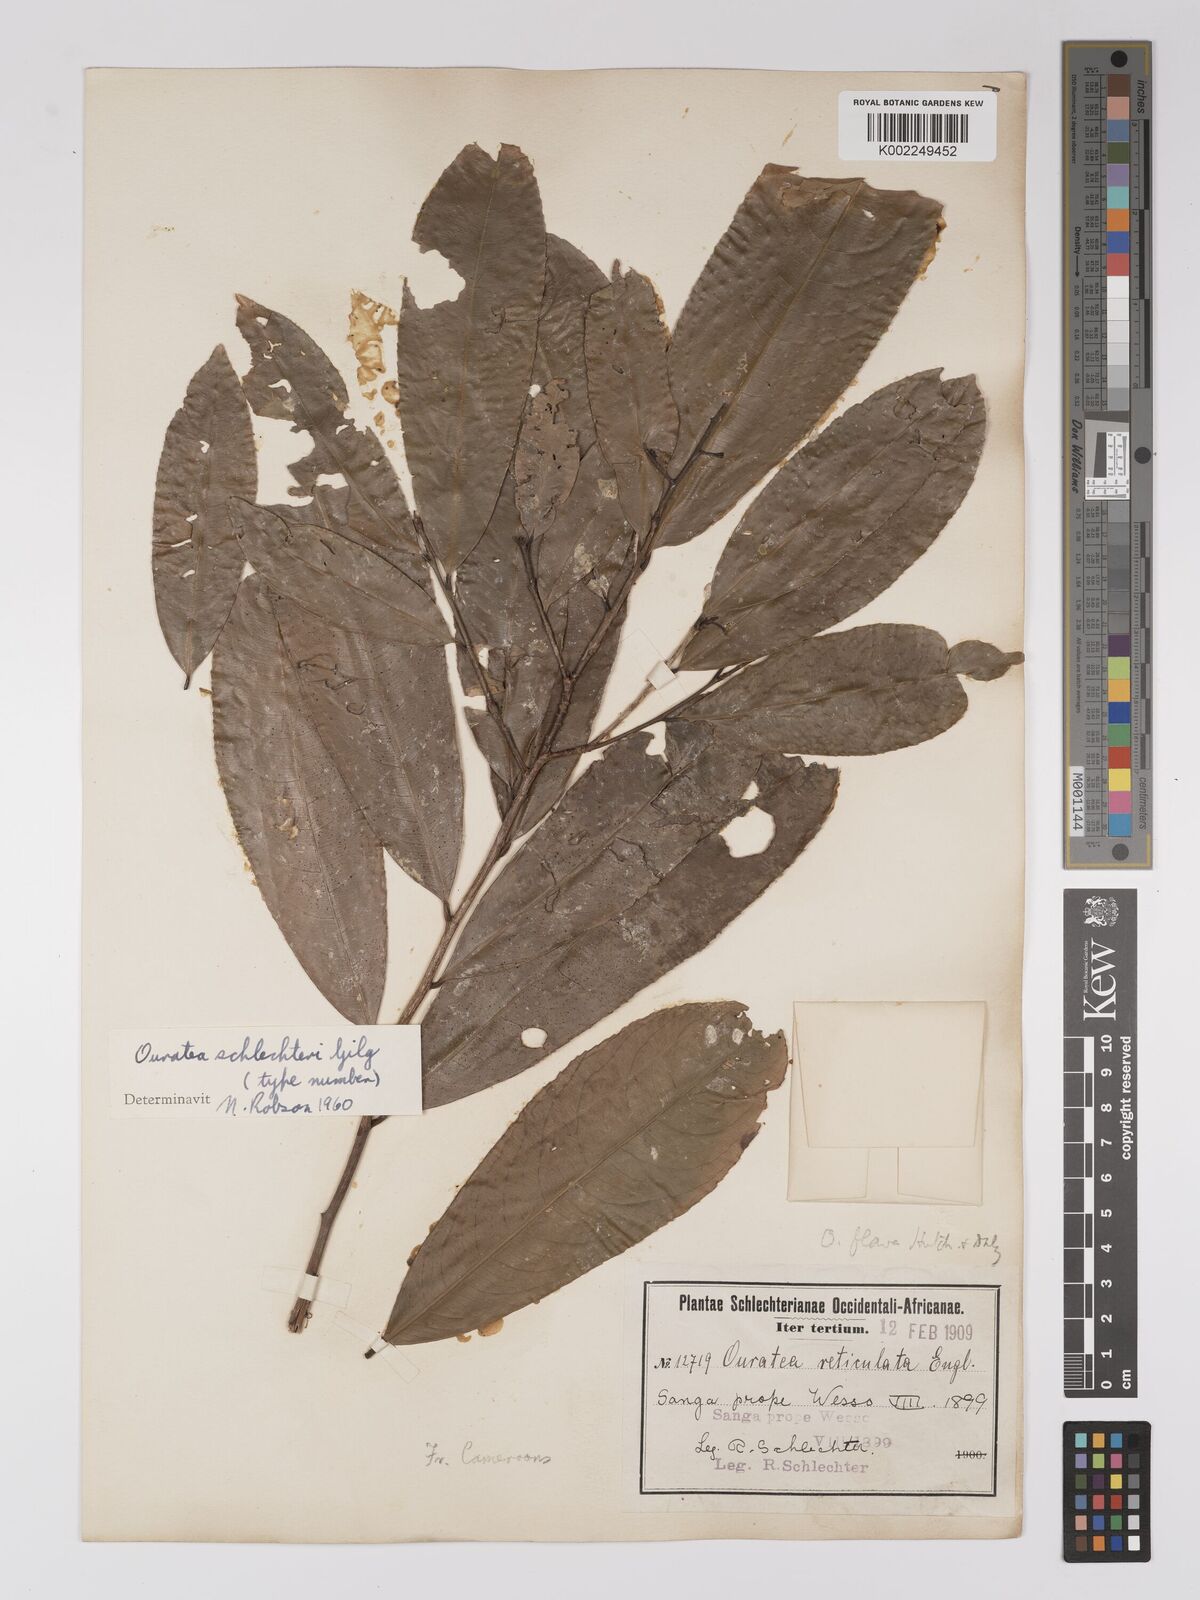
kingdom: Plantae
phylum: Tracheophyta
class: Magnoliopsida
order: Malpighiales
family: Ochnaceae
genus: Campylospermum
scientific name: Campylospermum flavum
